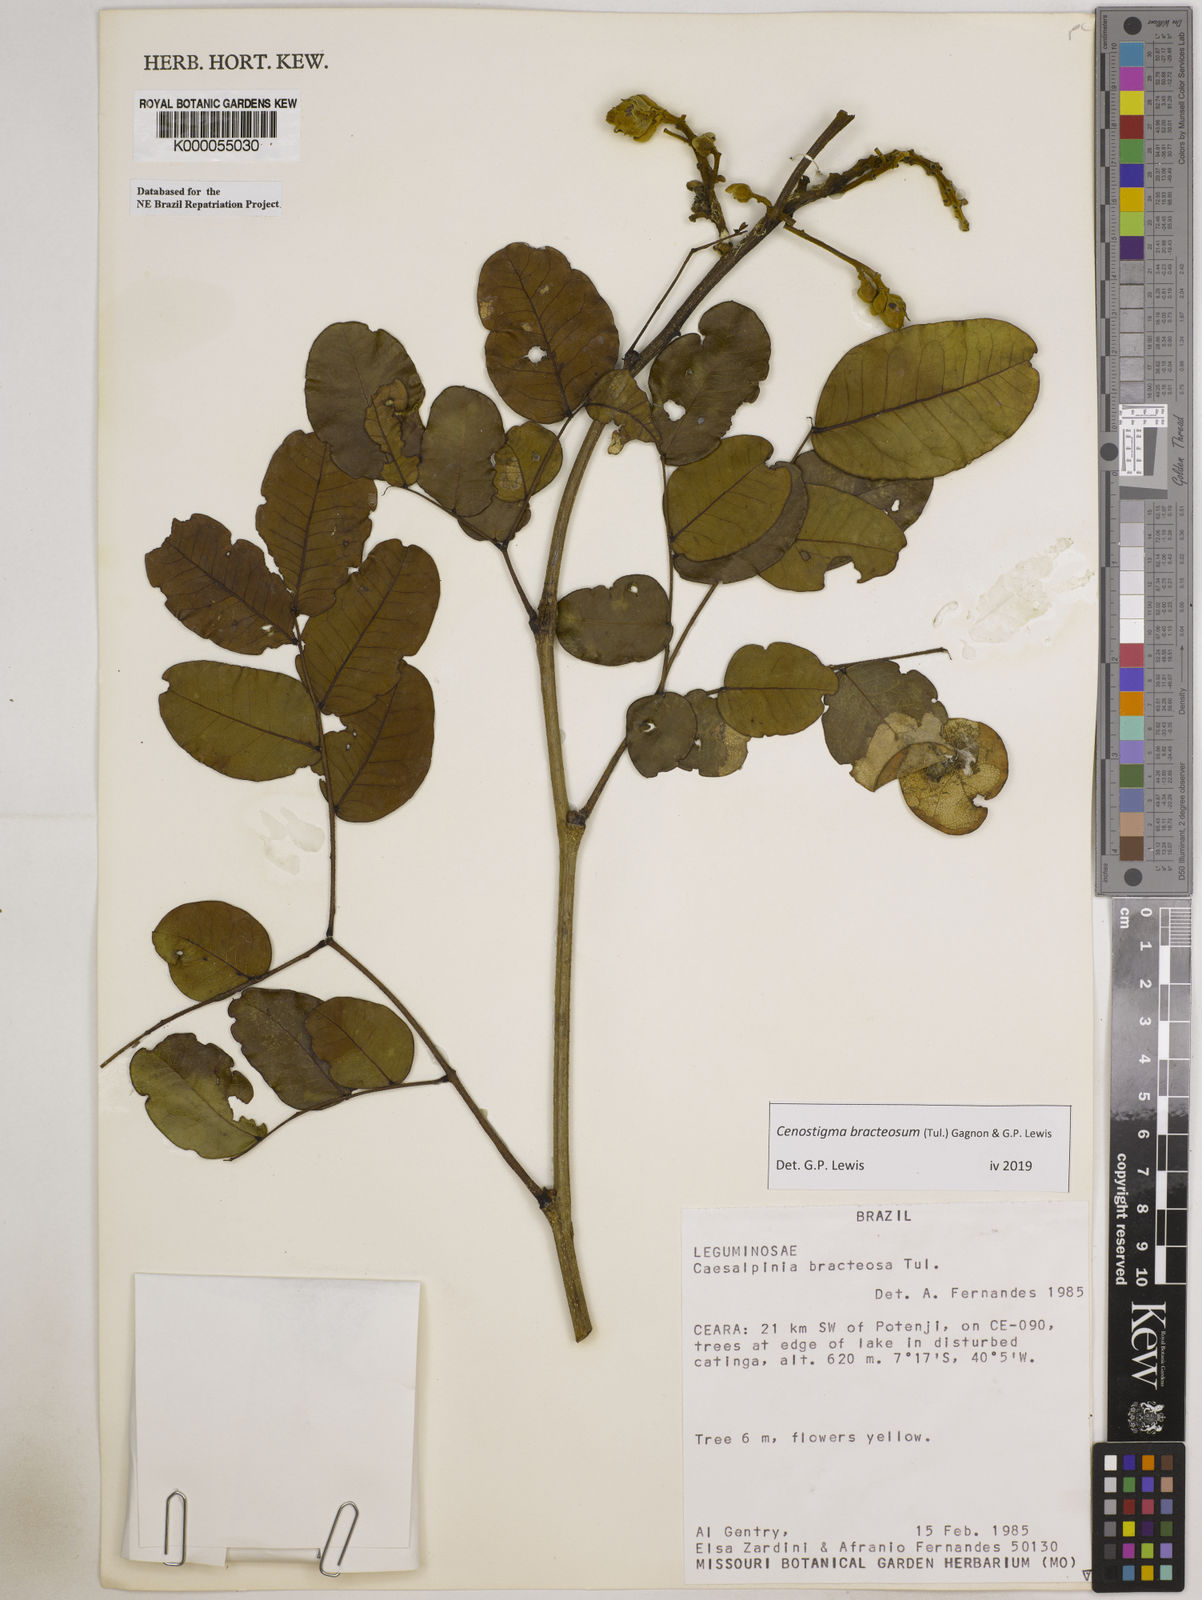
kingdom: Plantae
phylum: Tracheophyta
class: Magnoliopsida
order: Fabales
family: Fabaceae
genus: Cenostigma
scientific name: Cenostigma bracteosum
